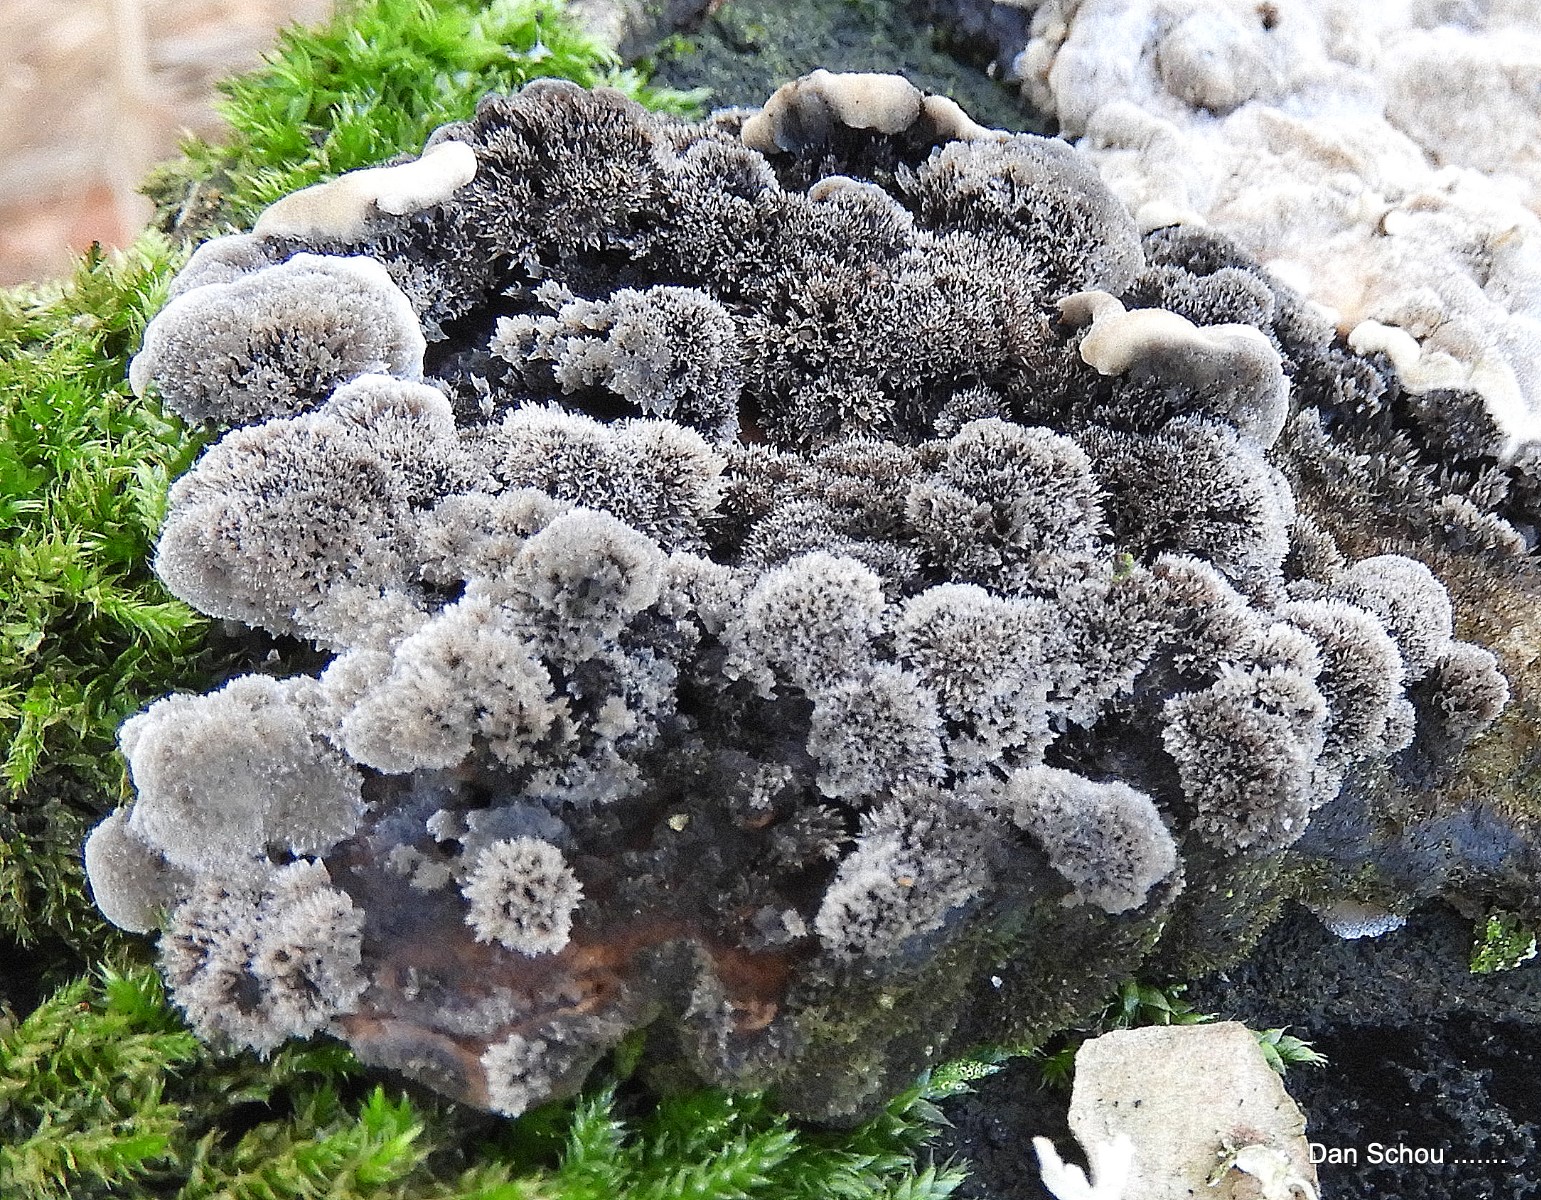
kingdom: Fungi
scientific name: Fungi
